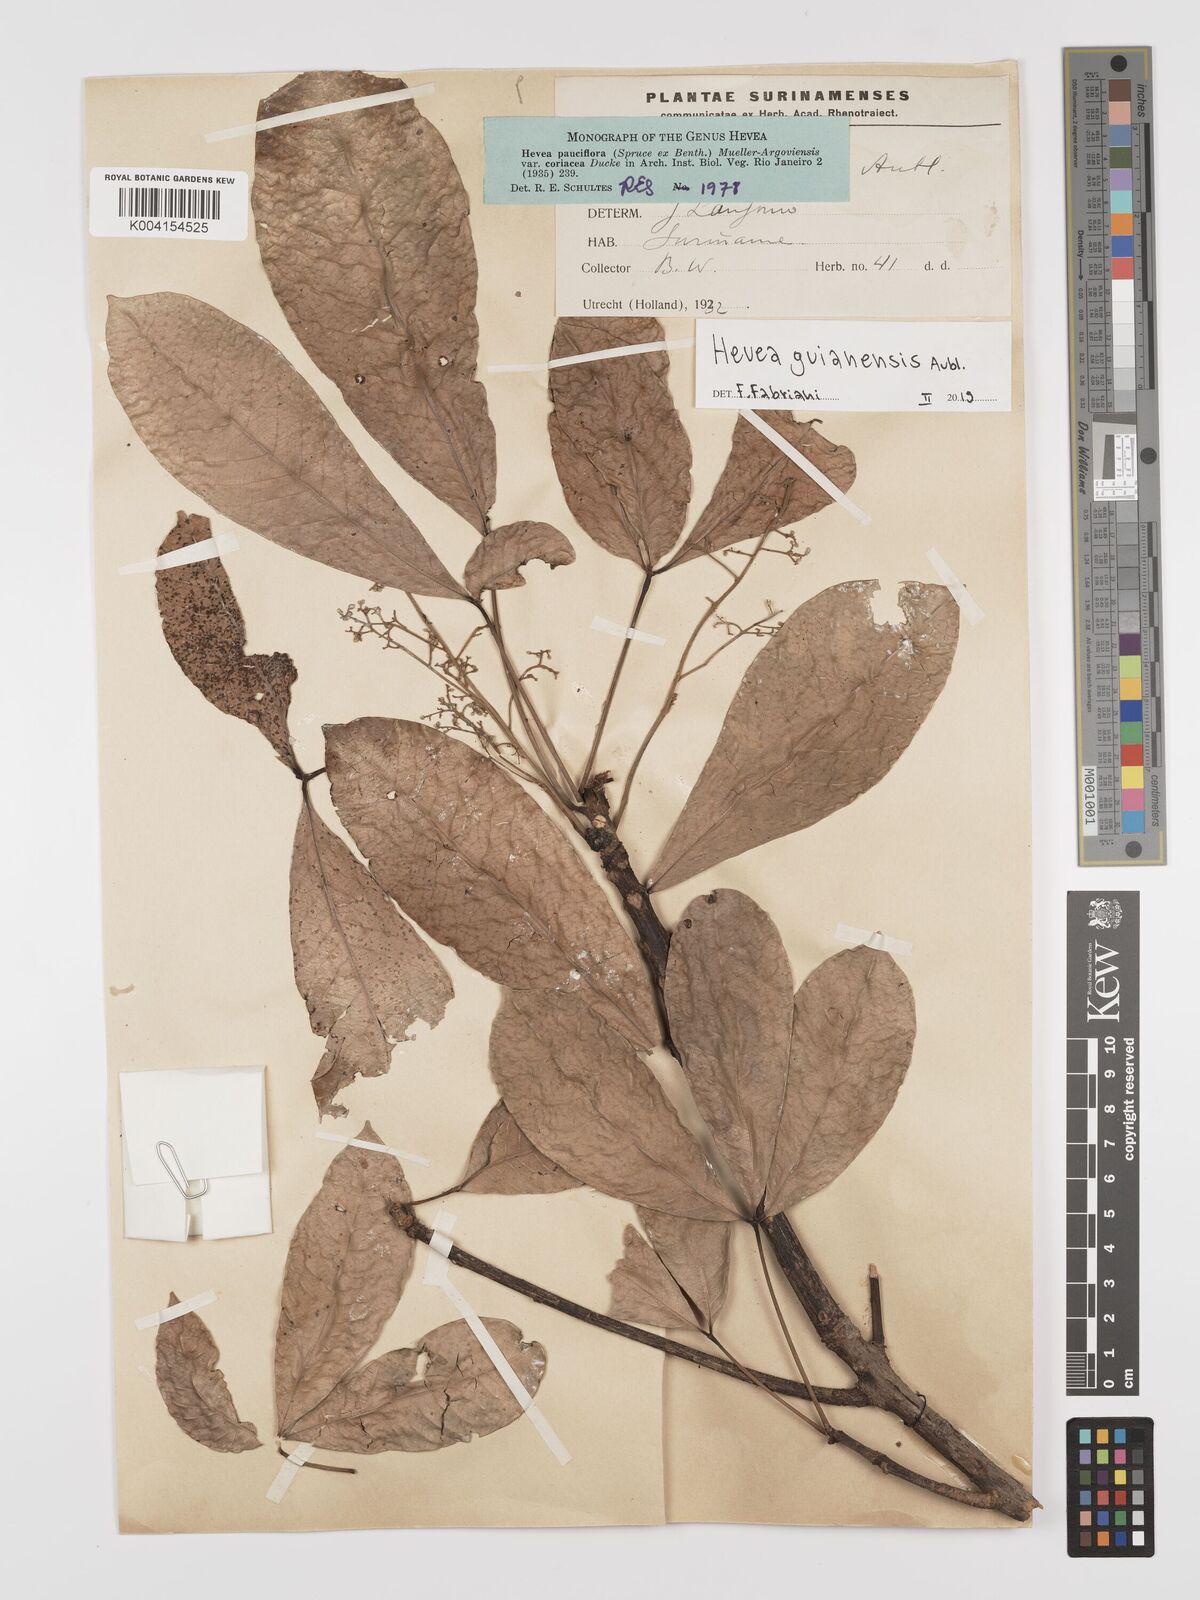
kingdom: Plantae
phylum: Tracheophyta
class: Magnoliopsida
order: Malpighiales
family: Euphorbiaceae
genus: Hevea
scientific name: Hevea guianensis
